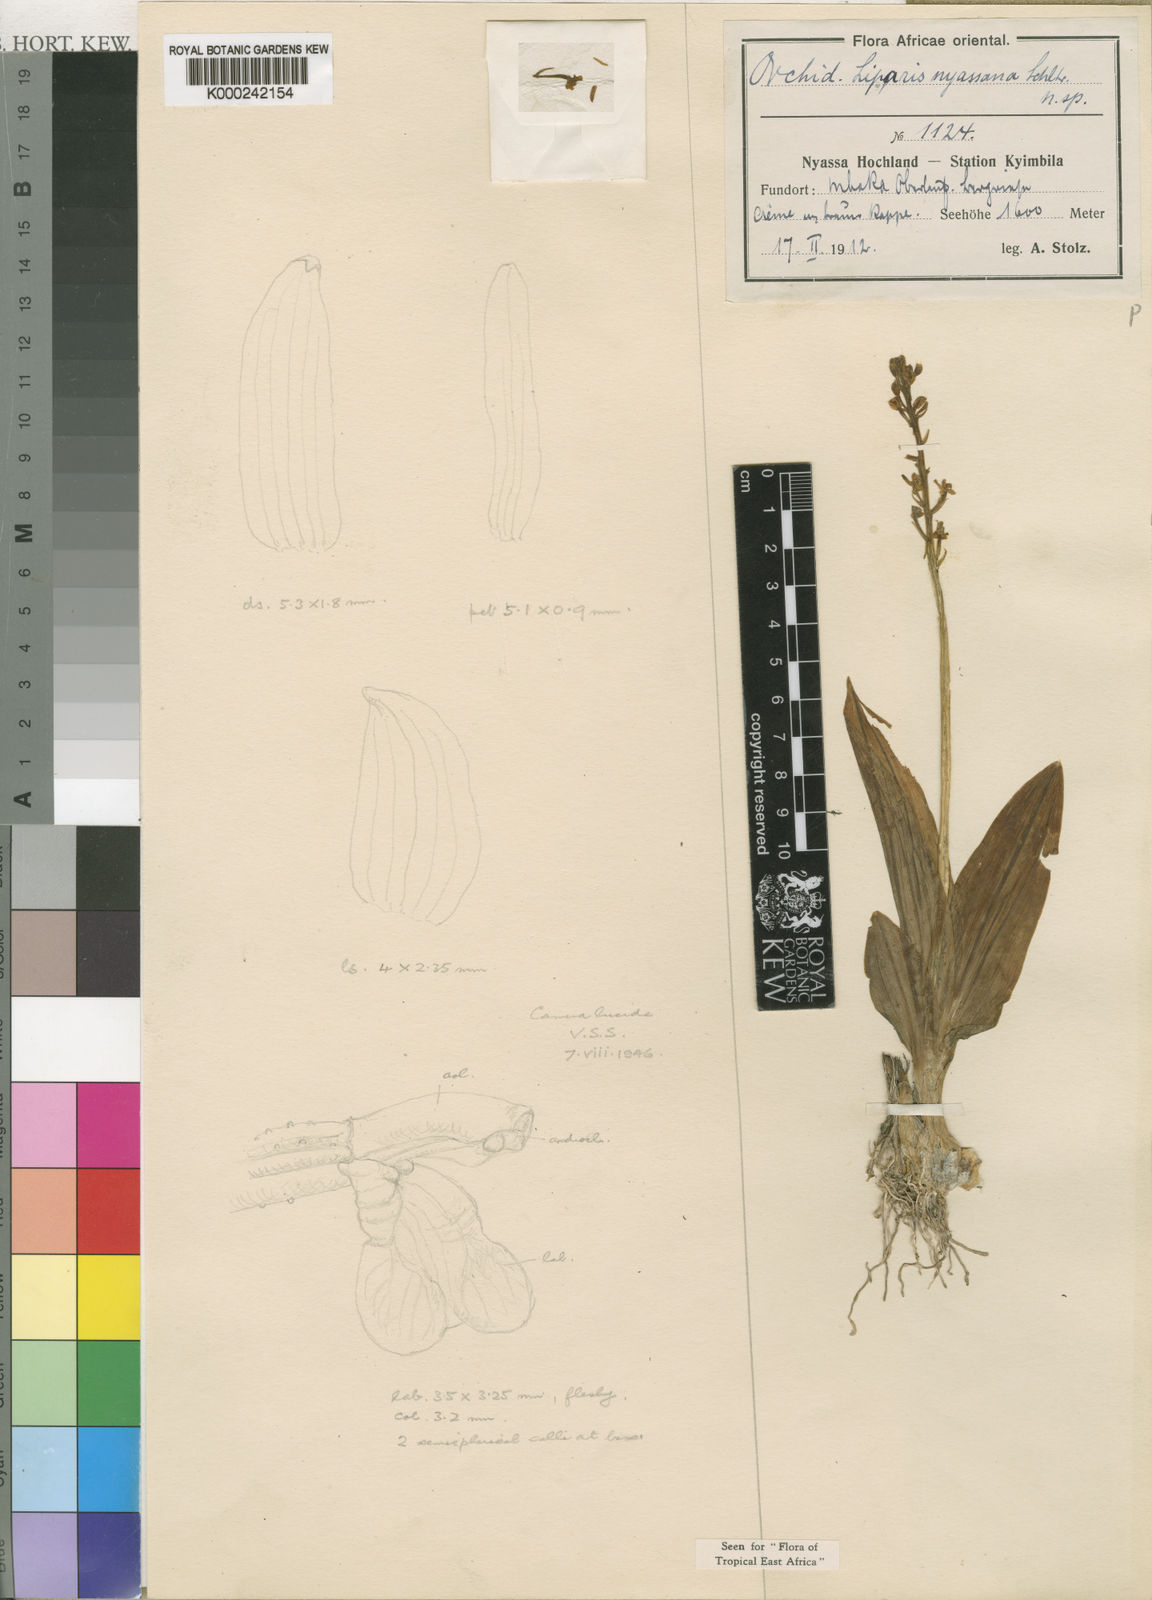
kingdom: Plantae
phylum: Tracheophyta
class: Liliopsida
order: Asparagales
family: Orchidaceae
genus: Liparis
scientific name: Liparis nervosa
